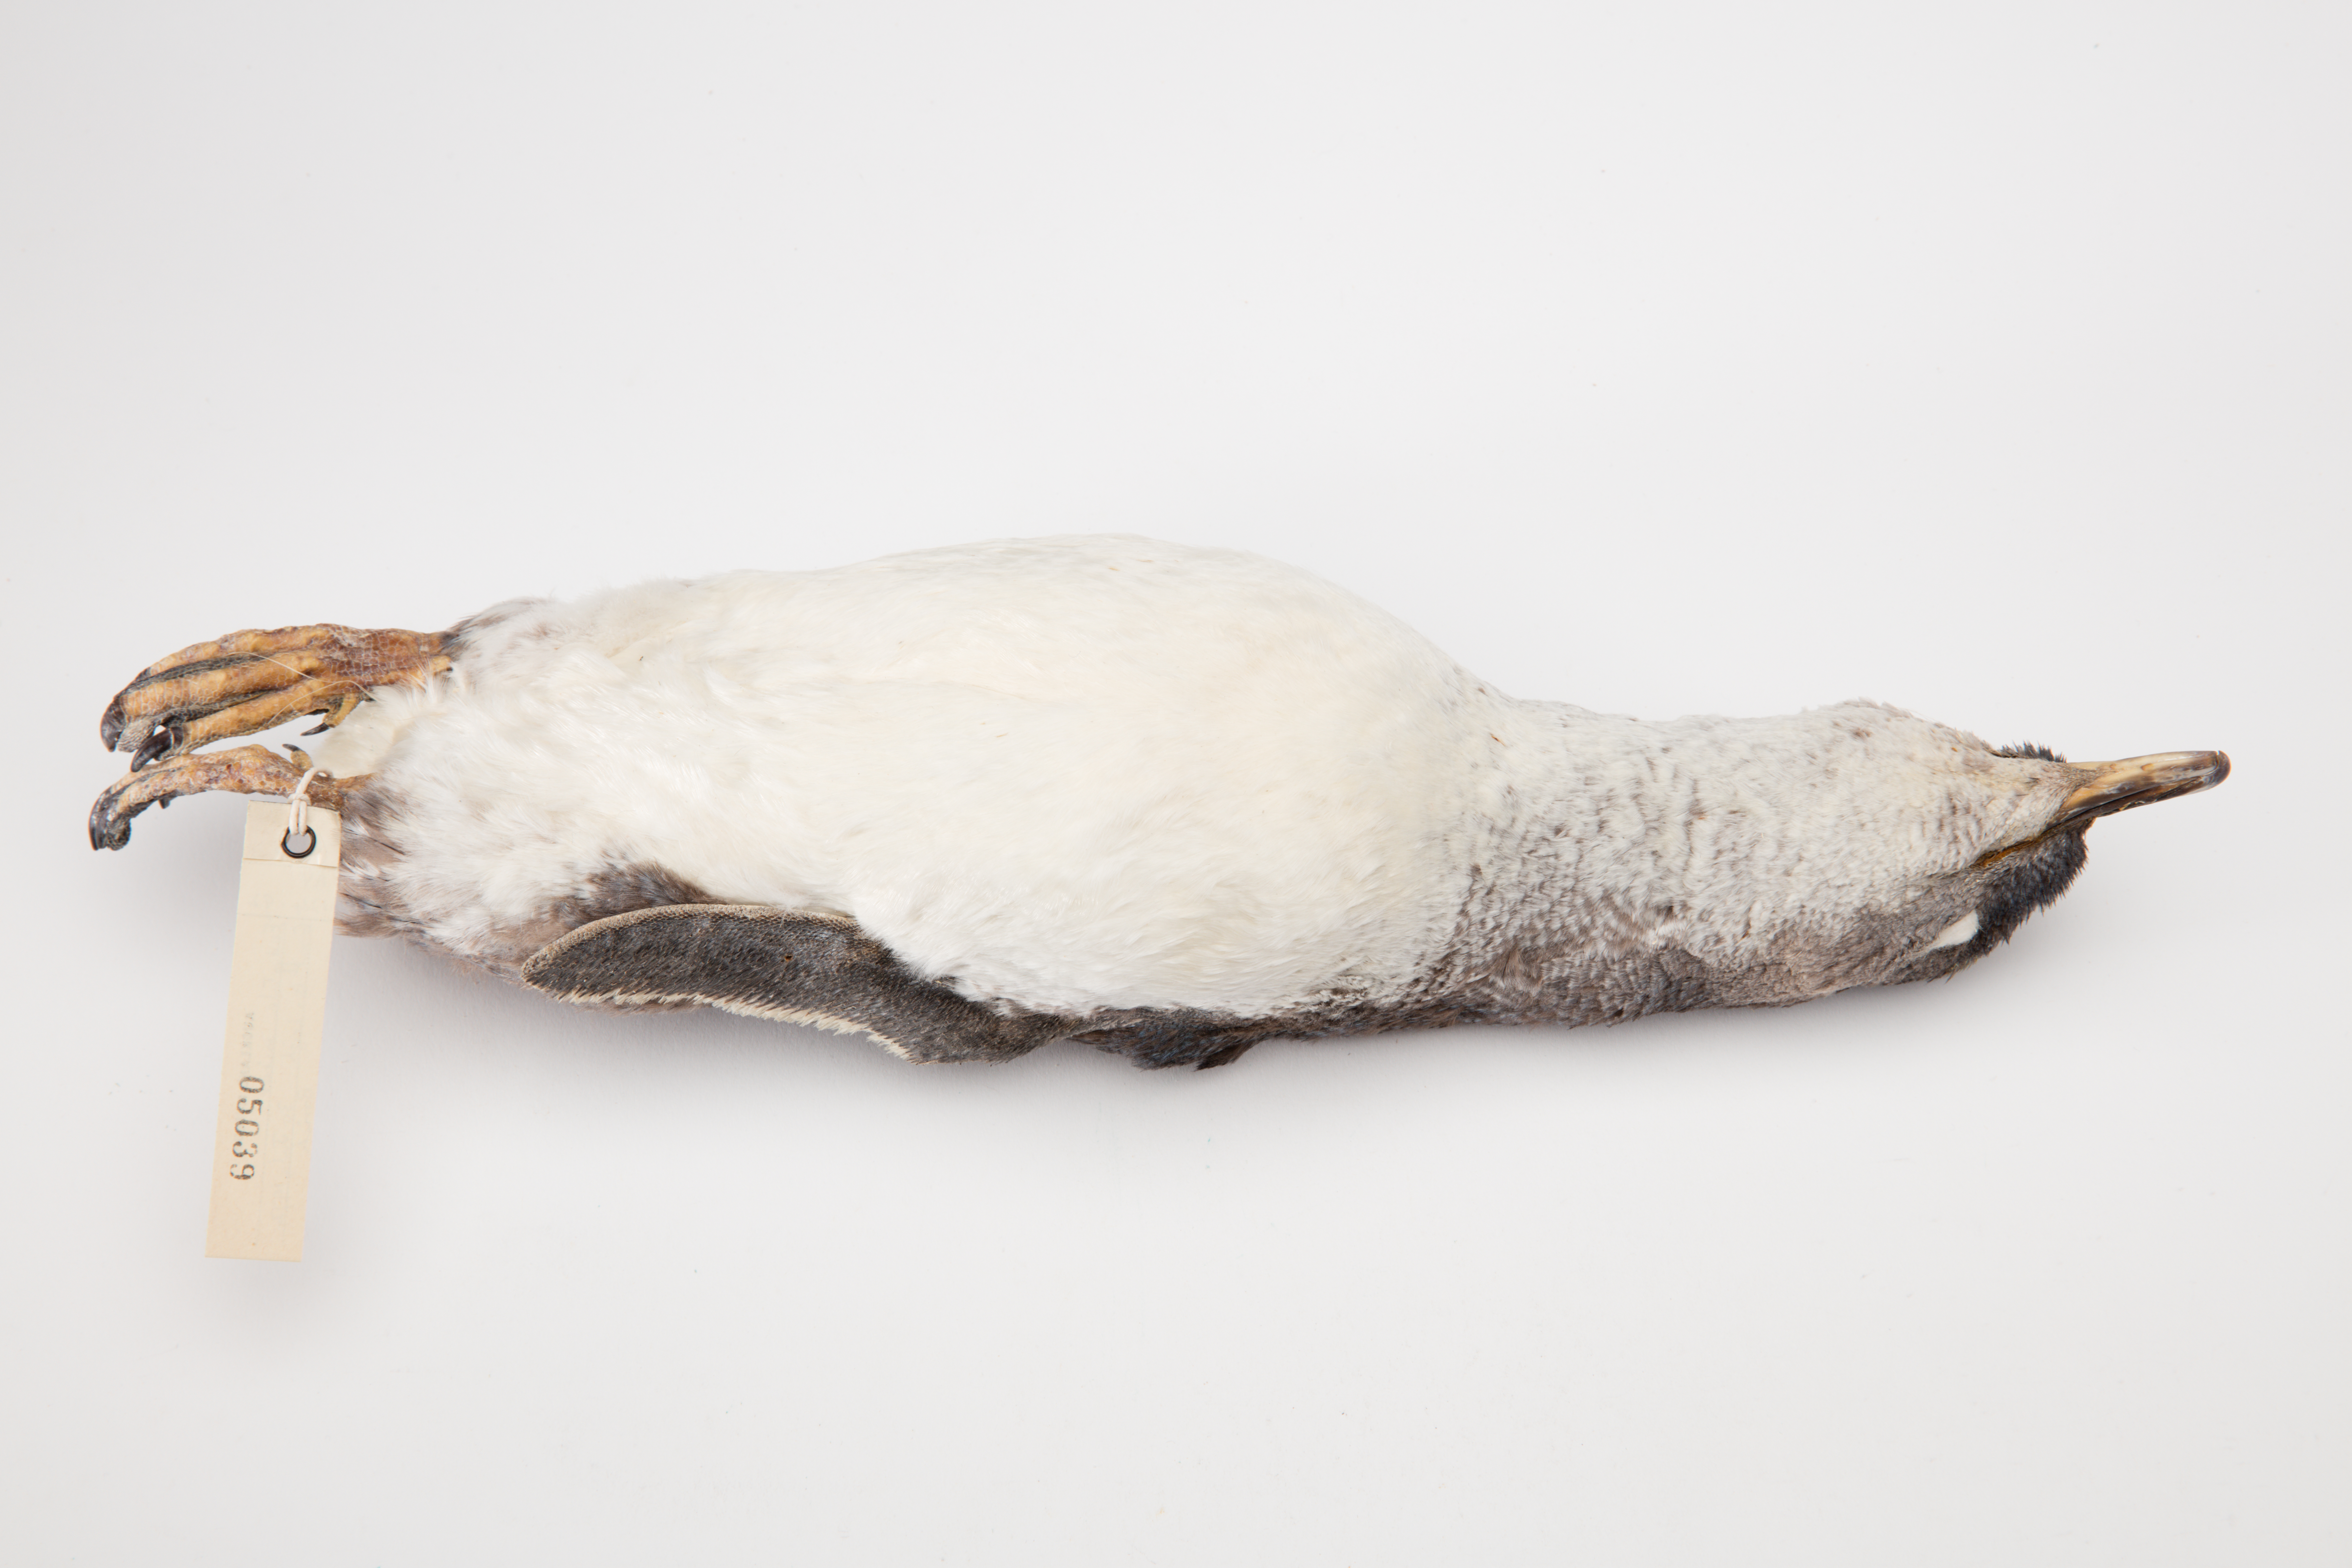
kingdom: Animalia
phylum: Chordata
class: Aves
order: Sphenisciformes
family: Spheniscidae
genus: Eudyptula
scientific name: Eudyptula minor
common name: Little penguin
